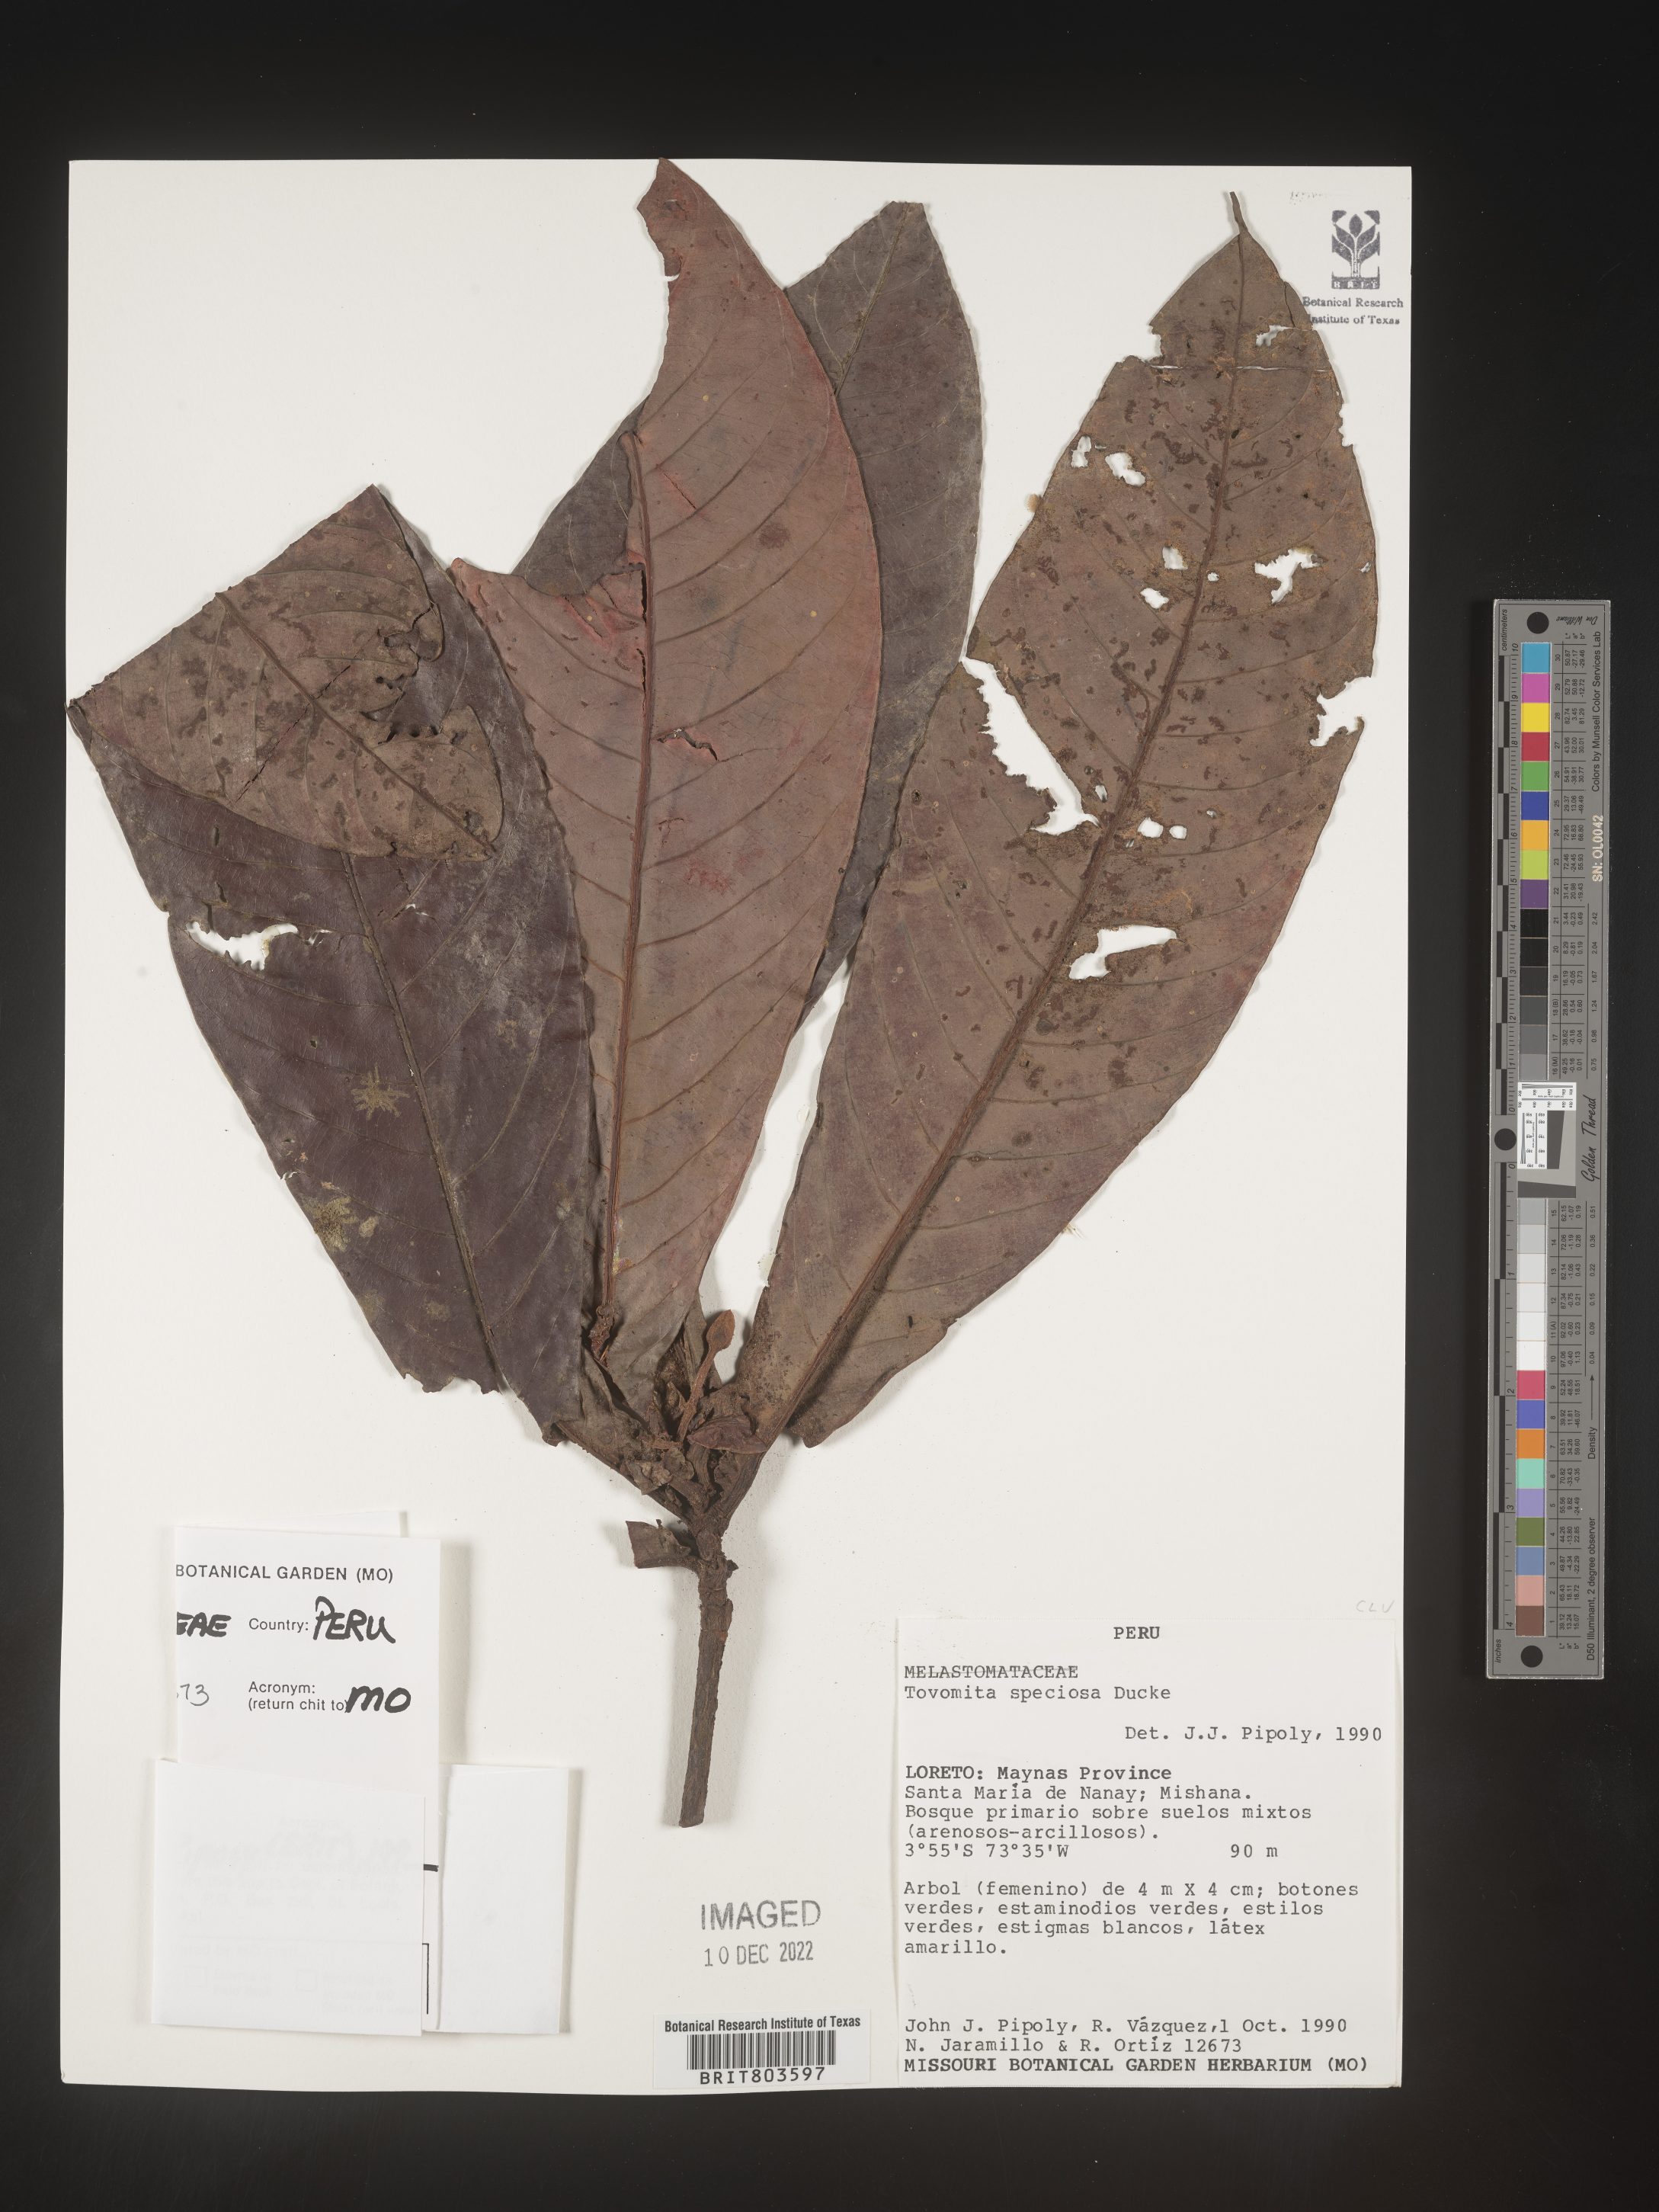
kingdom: Plantae
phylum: Tracheophyta
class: Magnoliopsida
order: Malpighiales
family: Clusiaceae
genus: Tovomita
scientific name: Tovomita
